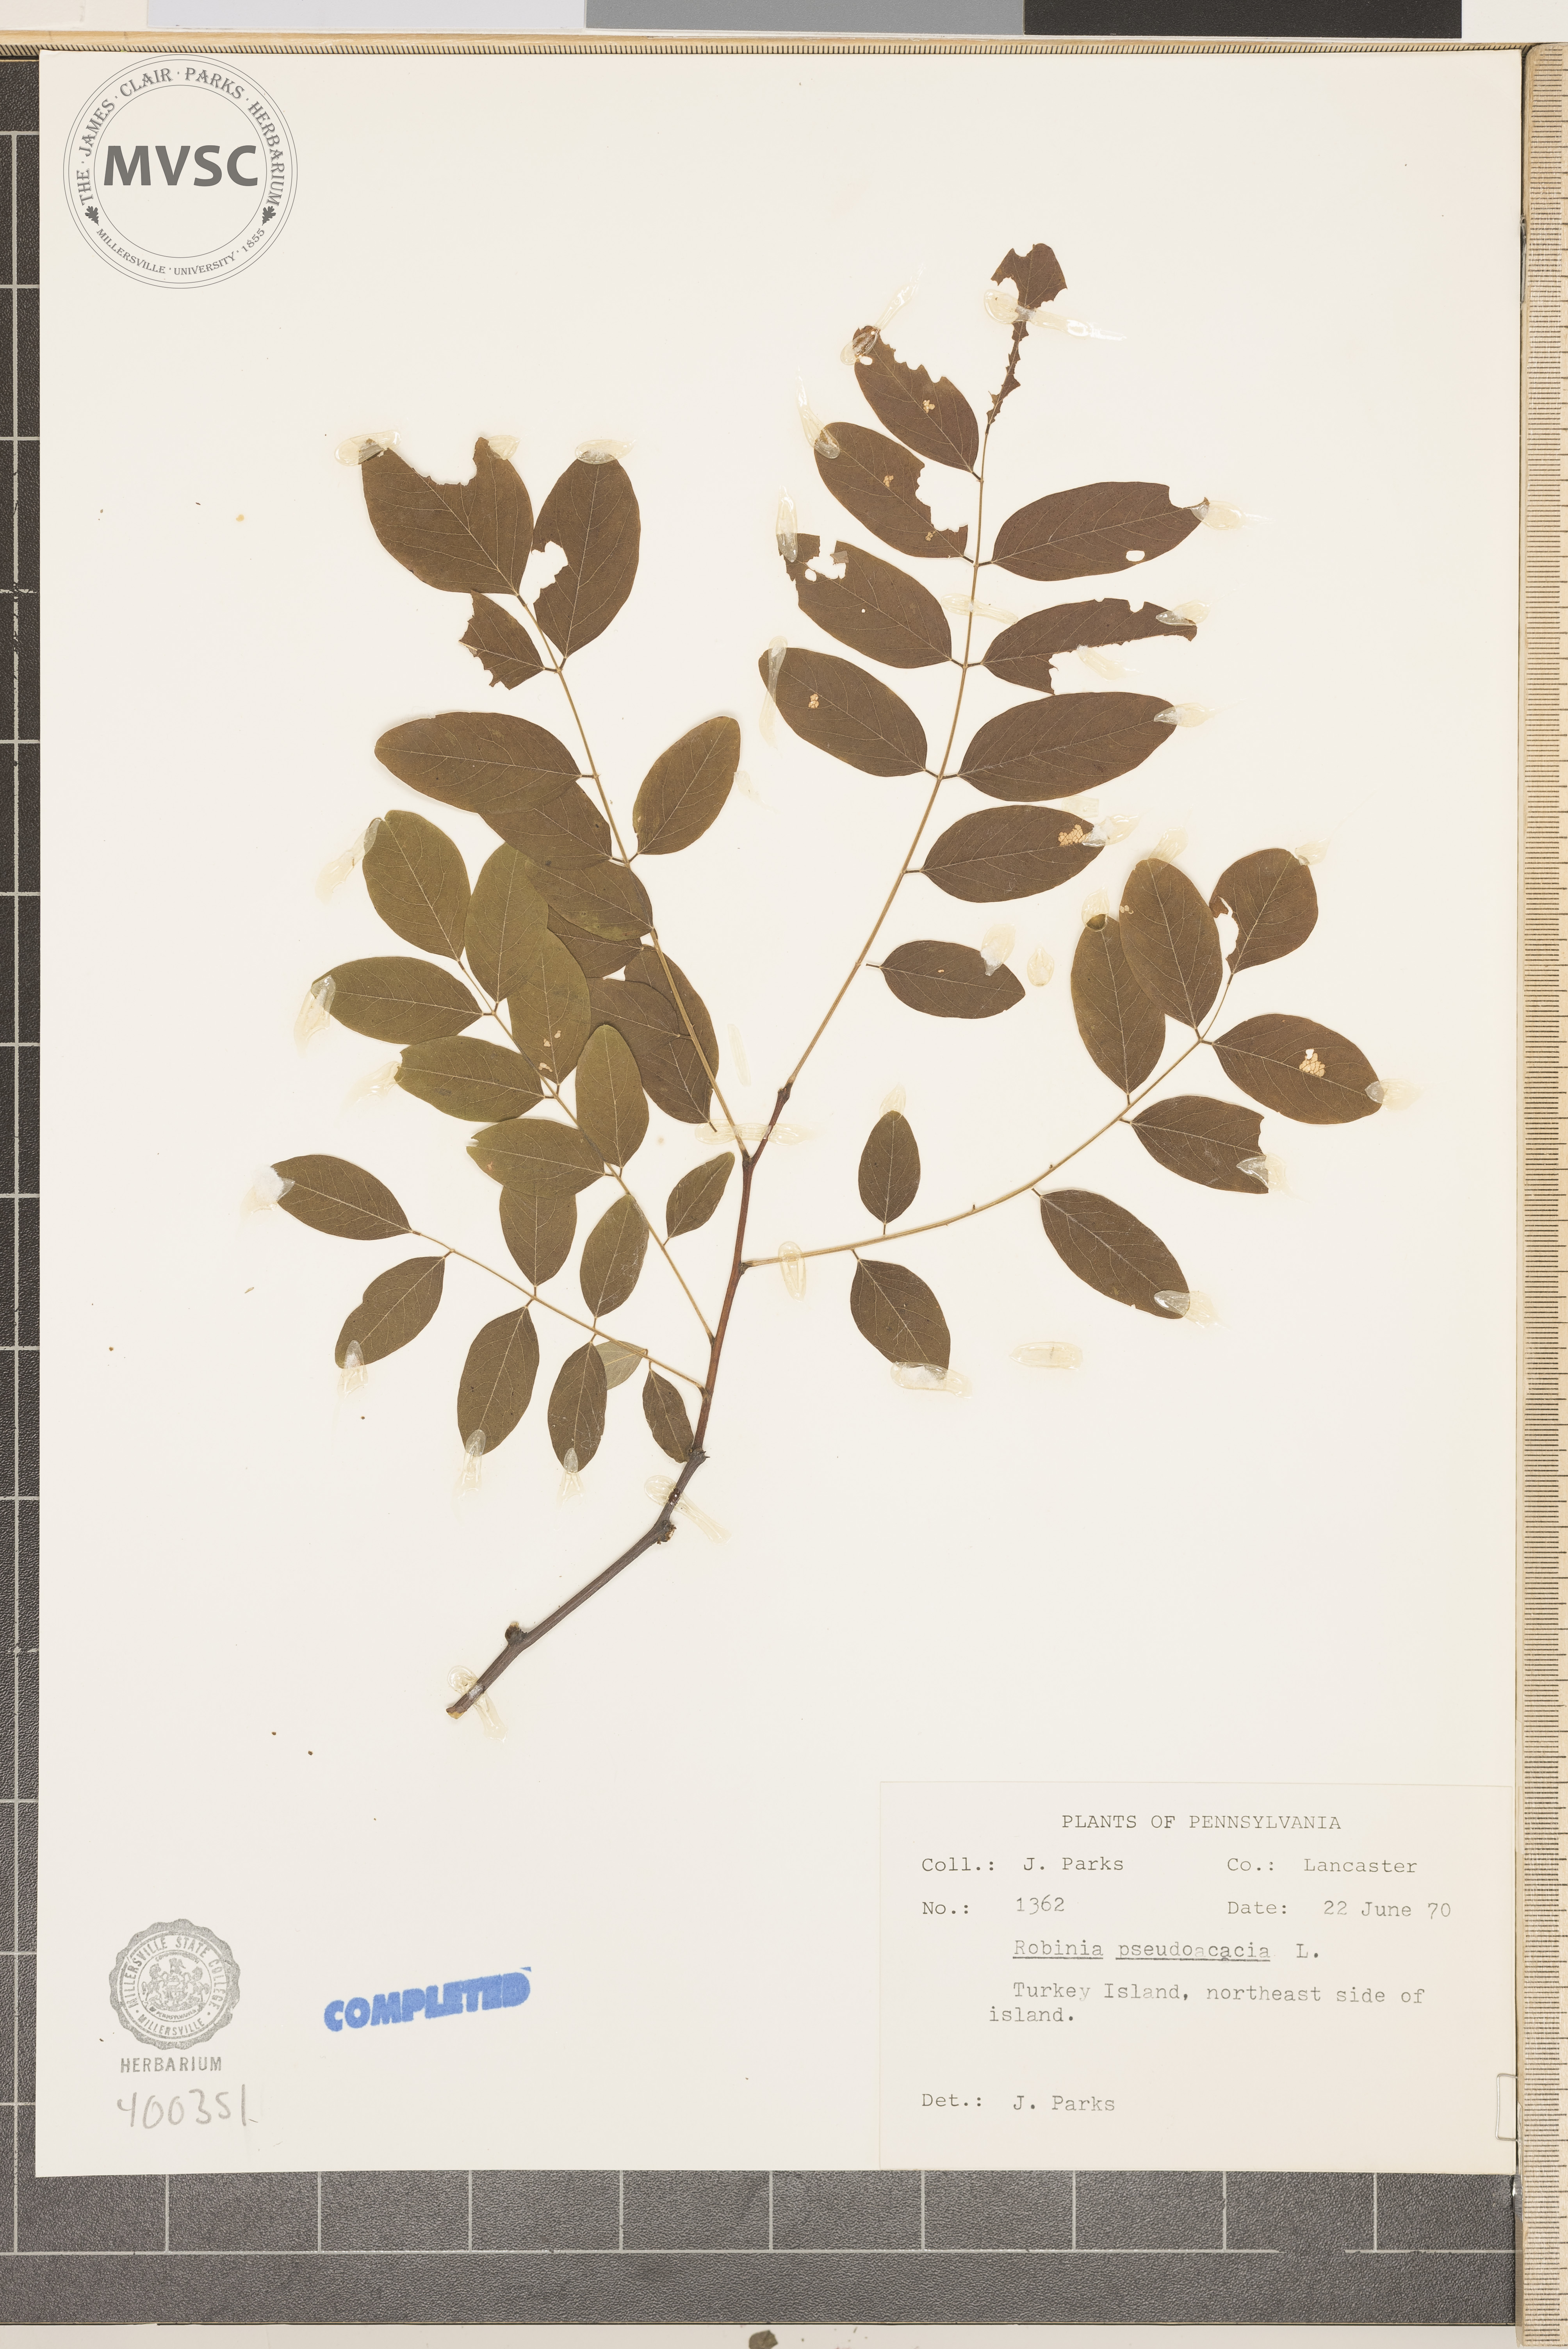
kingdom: Plantae
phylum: Tracheophyta
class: Magnoliopsida
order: Fabales
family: Fabaceae
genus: Robinia
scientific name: Robinia pseudoacacia
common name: black locust
